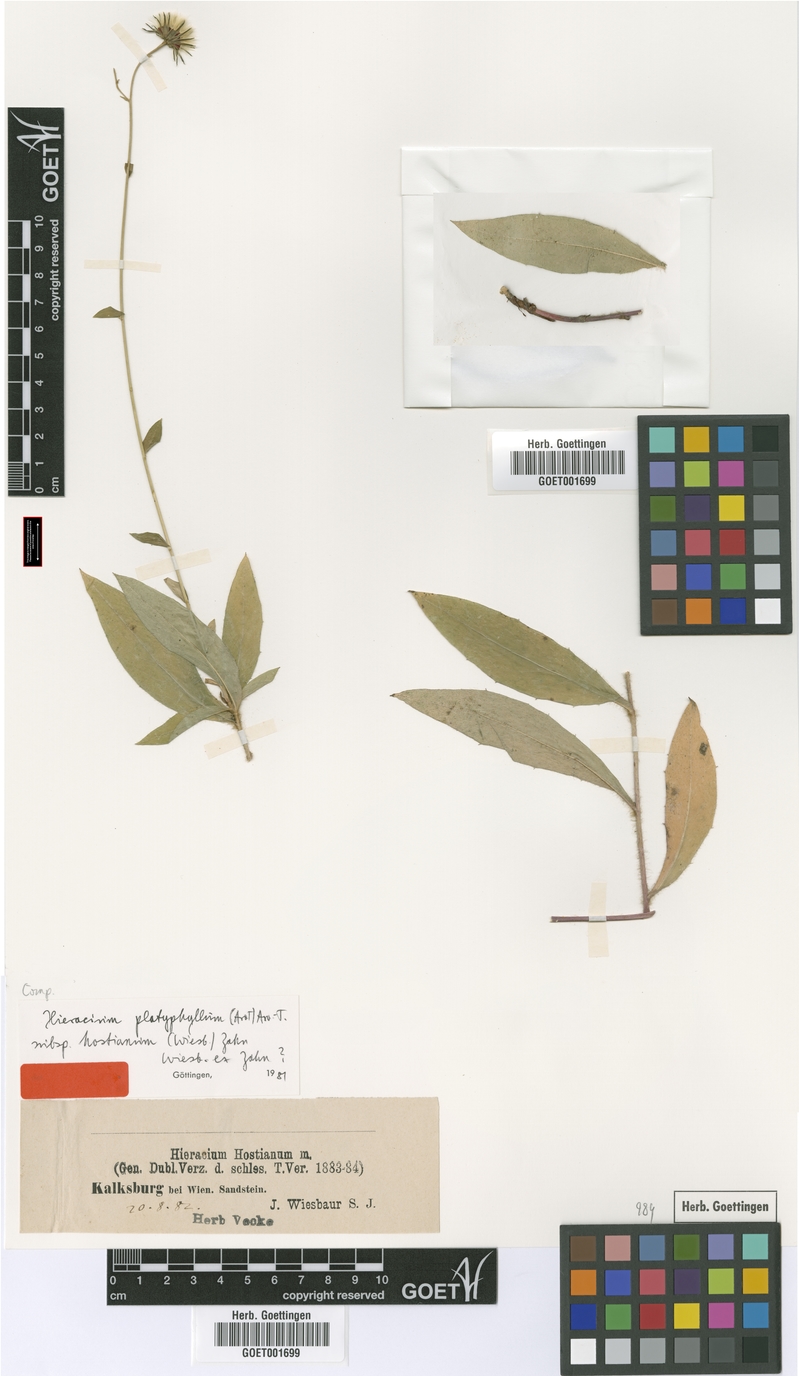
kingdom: Plantae
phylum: Tracheophyta
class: Magnoliopsida
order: Asterales
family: Asteraceae
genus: Hieracium
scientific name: Hieracium sabaudum
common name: New england hawkweed
